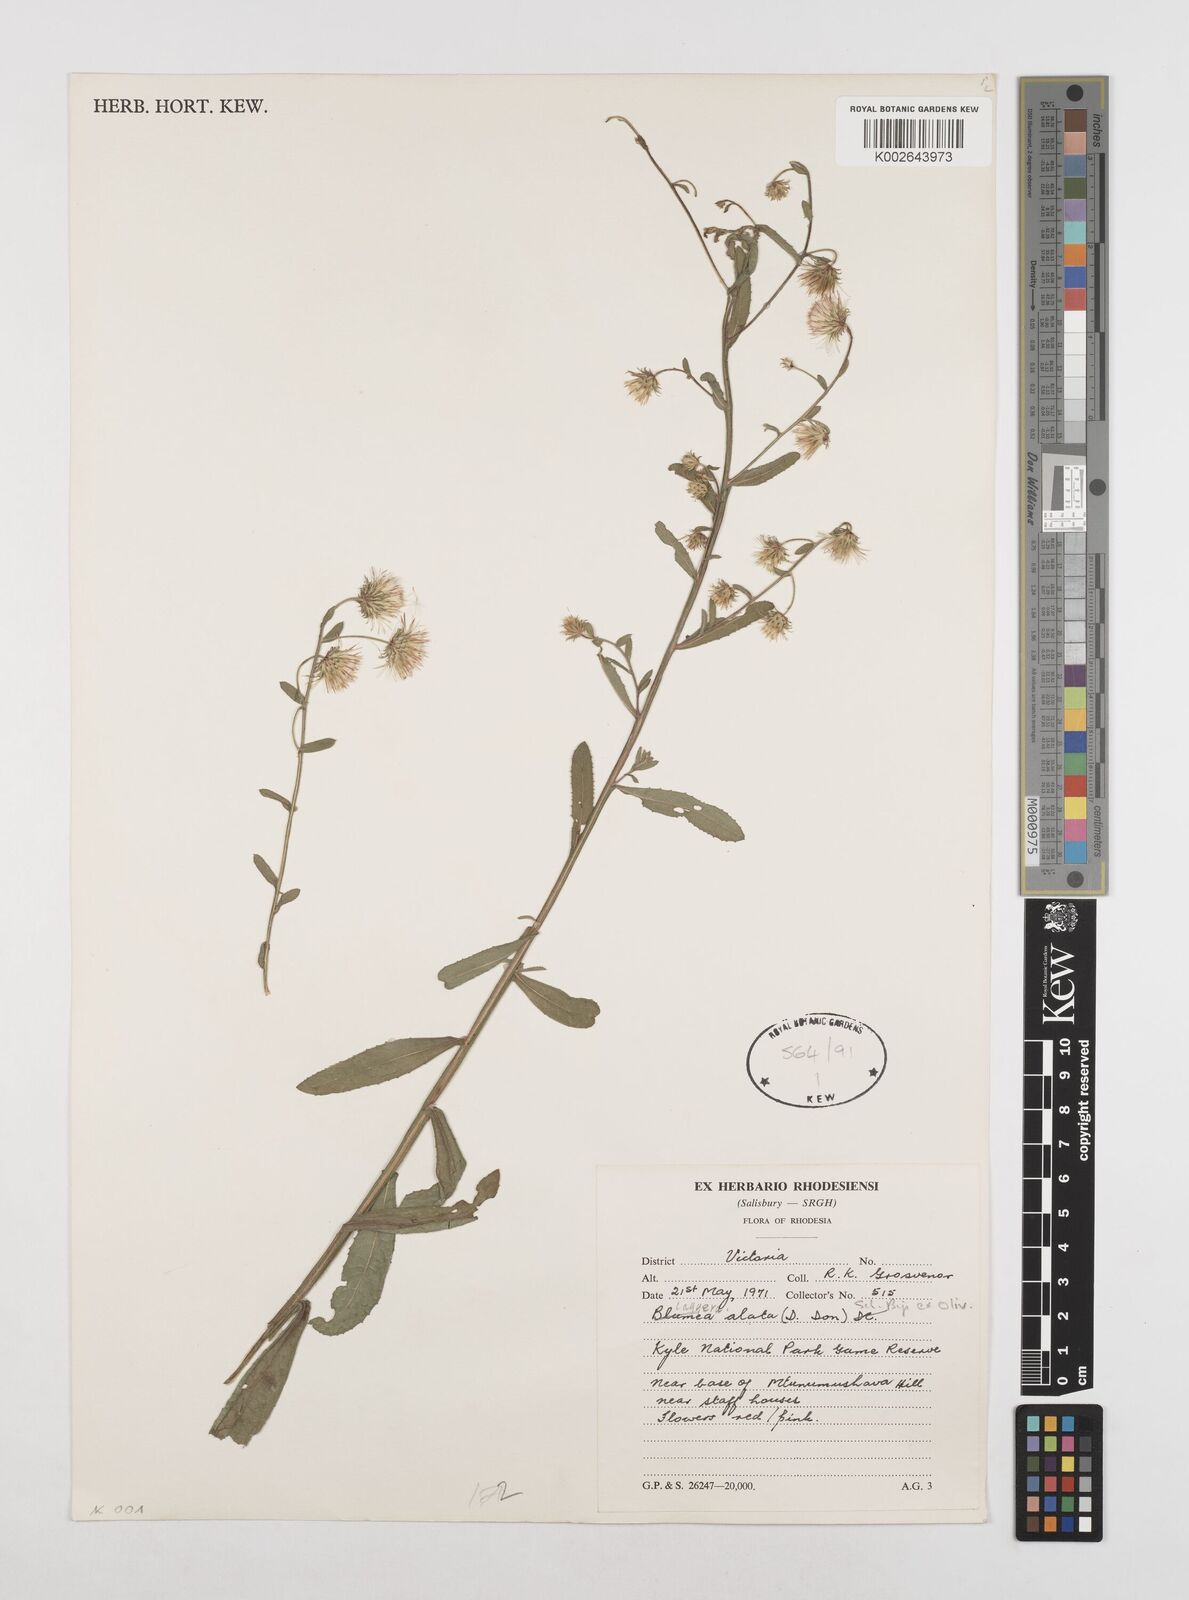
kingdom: Plantae
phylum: Tracheophyta
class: Magnoliopsida
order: Asterales
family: Asteraceae
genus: Laggera
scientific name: Laggera alata
